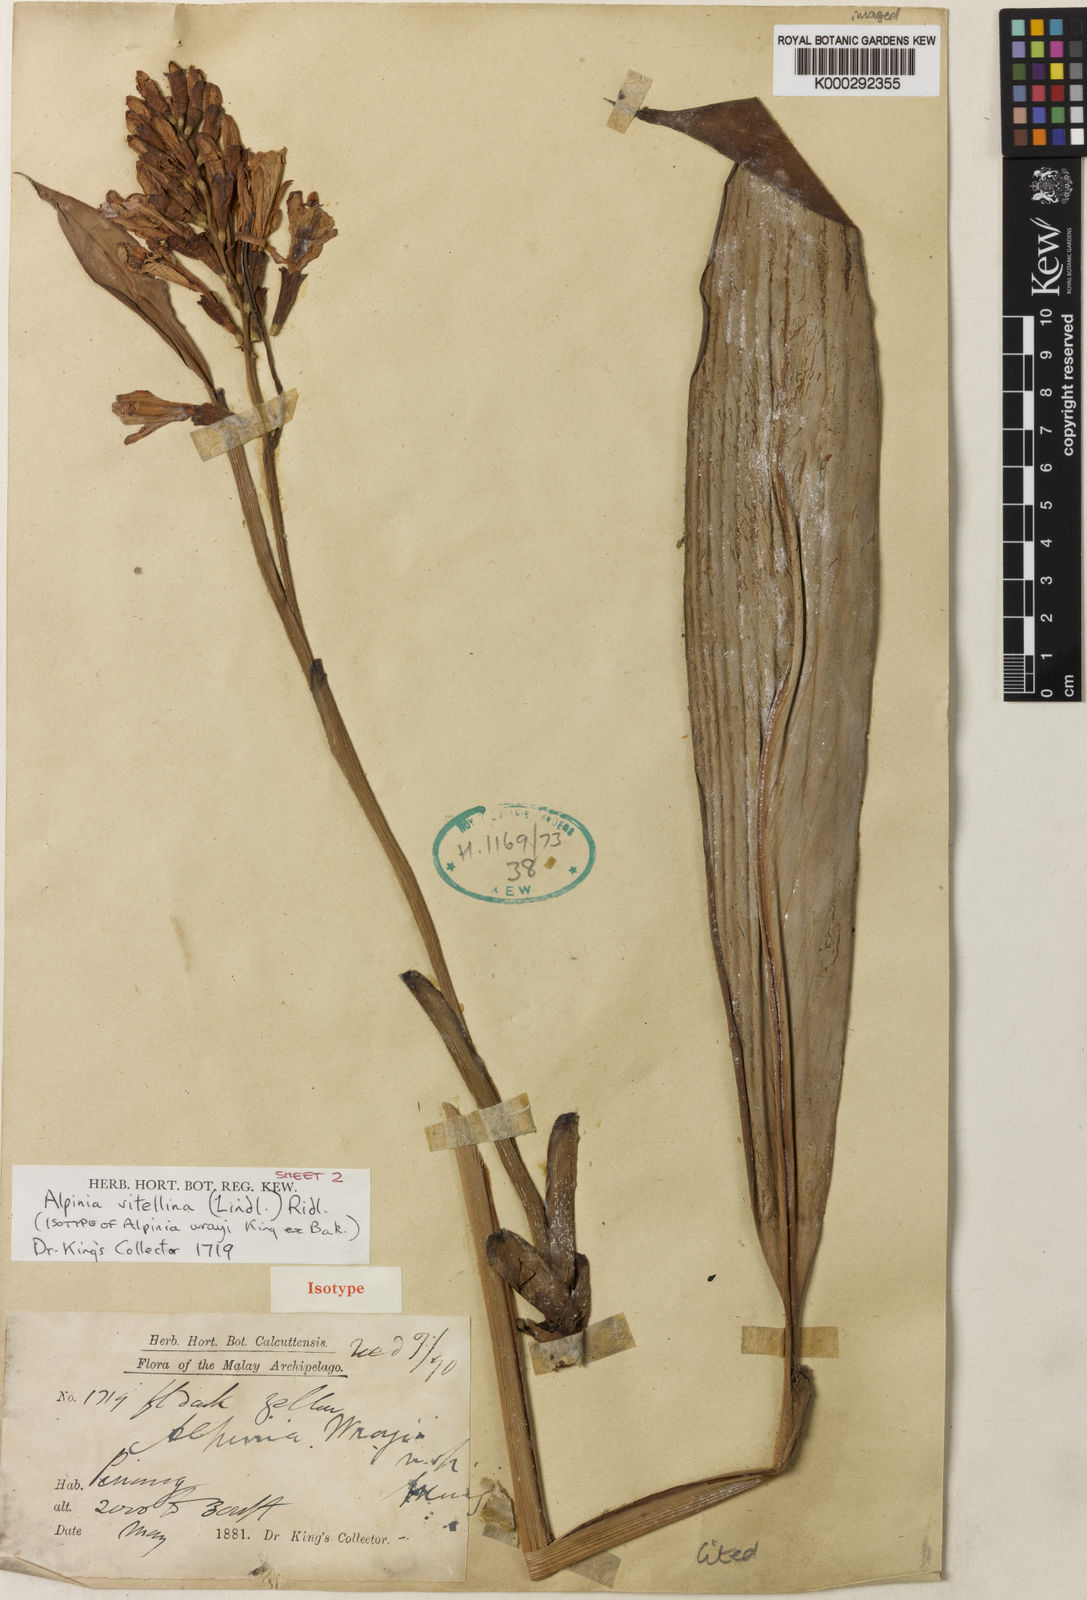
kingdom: Plantae
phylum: Tracheophyta
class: Liliopsida
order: Zingiberales
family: Zingiberaceae
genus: Alpinia
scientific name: Alpinia vitellina
